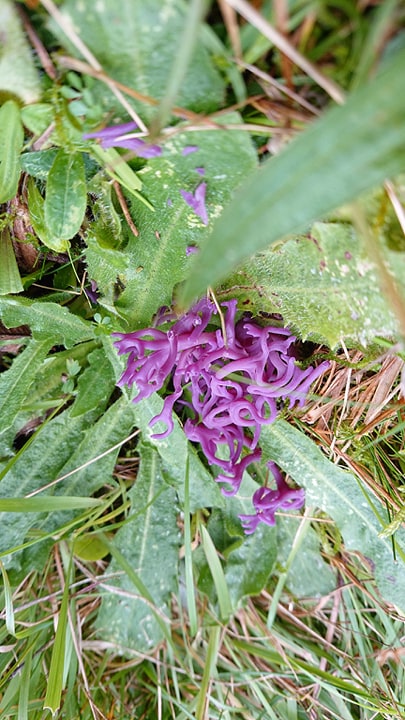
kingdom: Fungi
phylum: Basidiomycota
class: Agaricomycetes
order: Agaricales
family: Clavariaceae
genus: Clavaria
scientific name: Clavaria zollingeri
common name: purpur-køllesvamp
